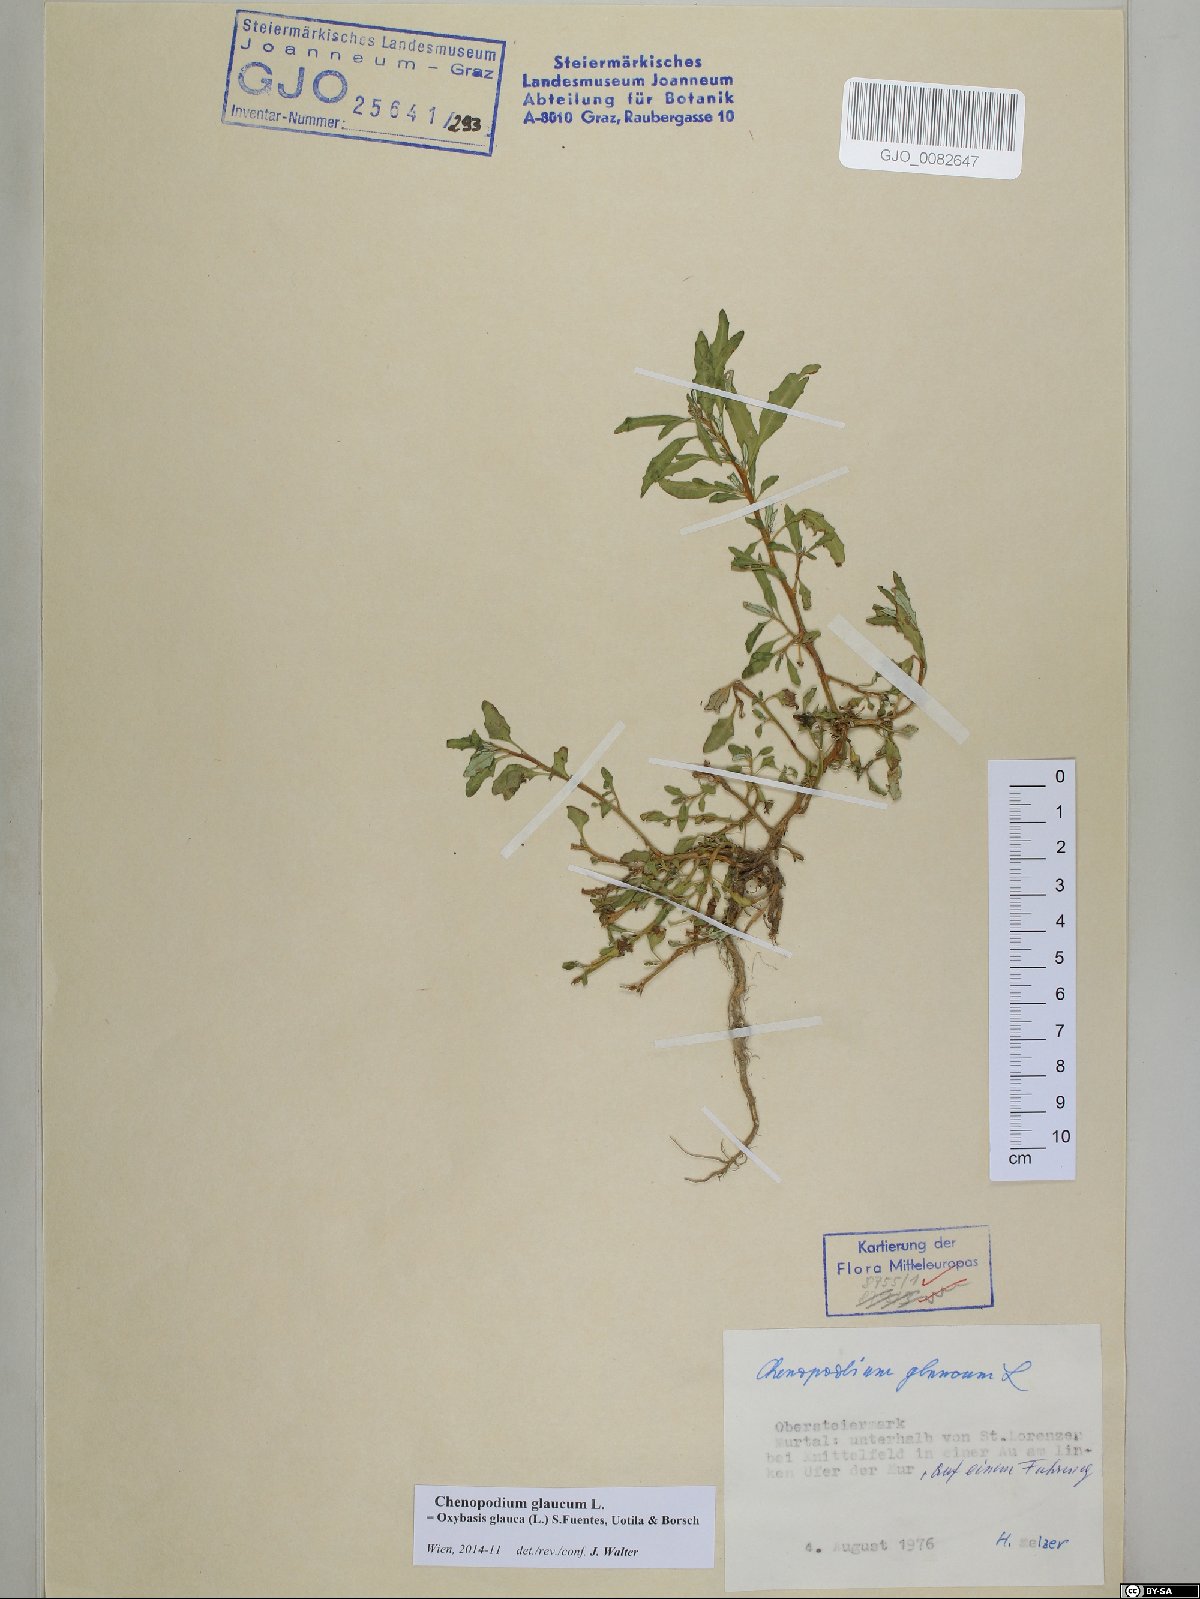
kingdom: Plantae
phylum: Tracheophyta
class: Magnoliopsida
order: Caryophyllales
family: Amaranthaceae
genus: Oxybasis
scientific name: Oxybasis glauca
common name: Glaucous goosefoot
